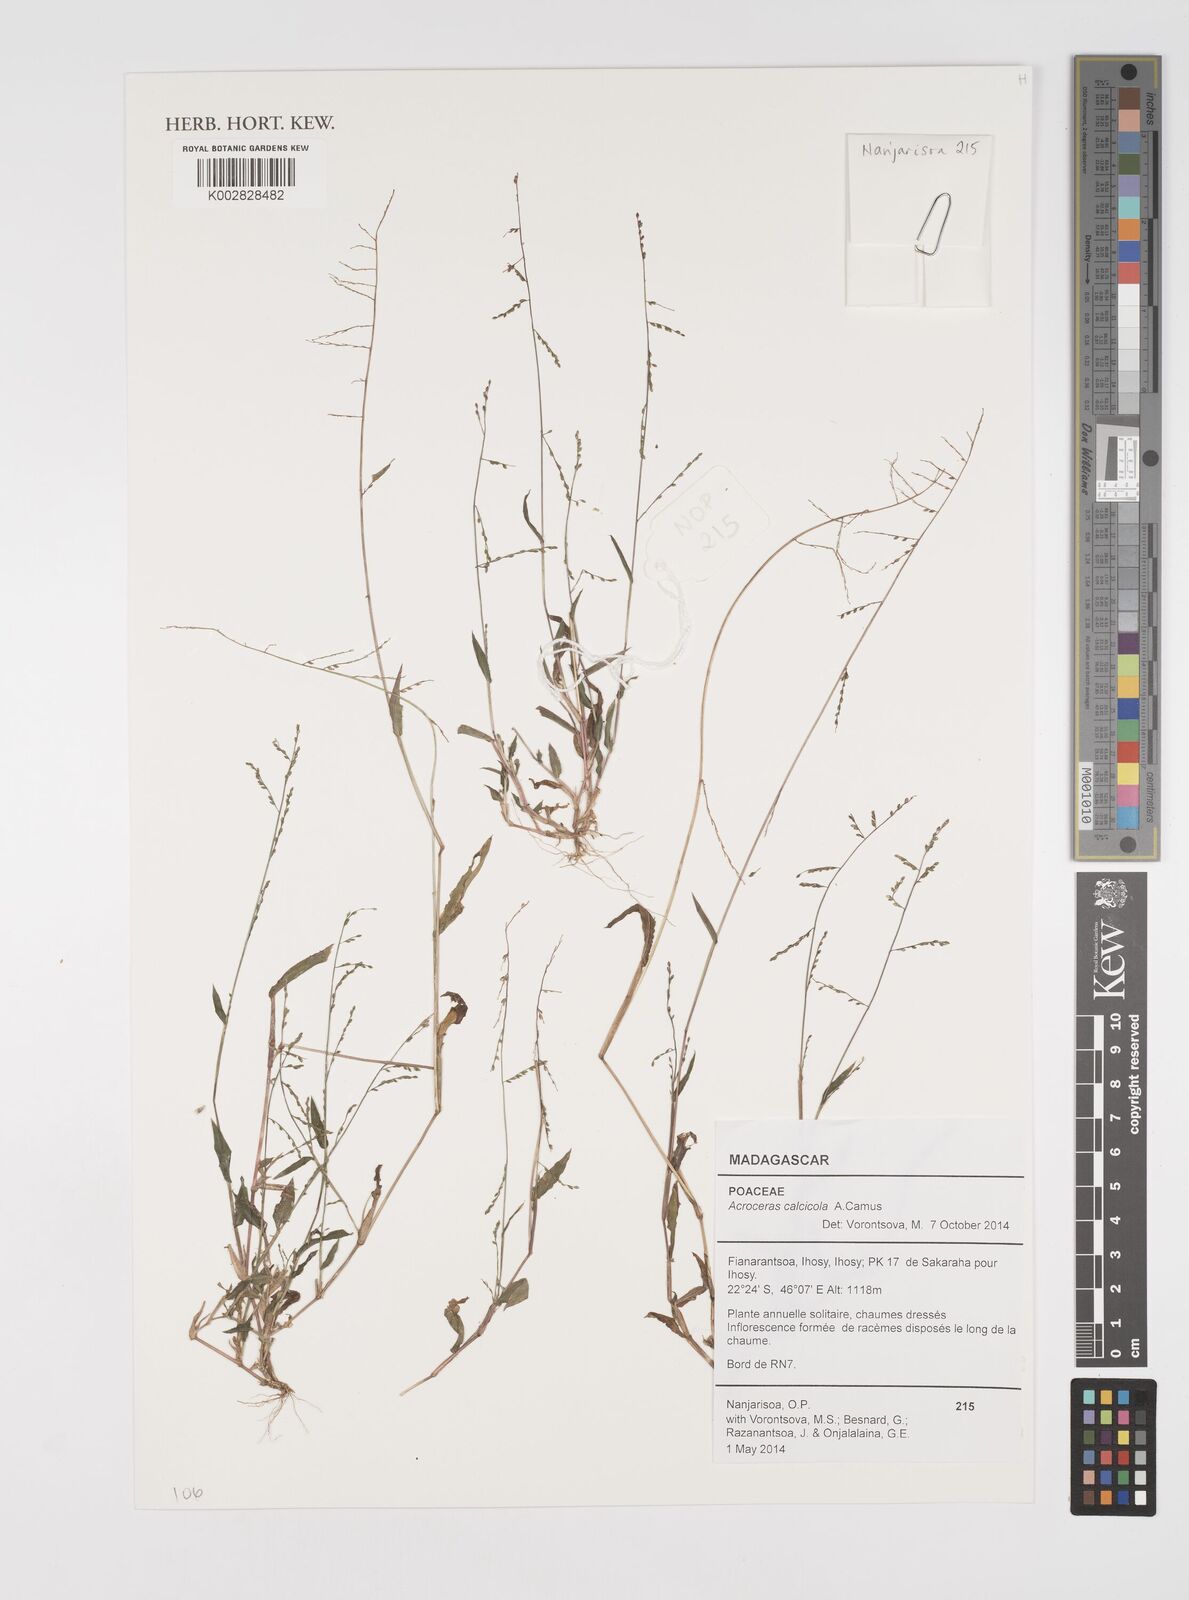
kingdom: Plantae
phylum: Tracheophyta
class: Liliopsida
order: Poales
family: Poaceae
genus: Acroceras
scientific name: Acroceras calcicola
